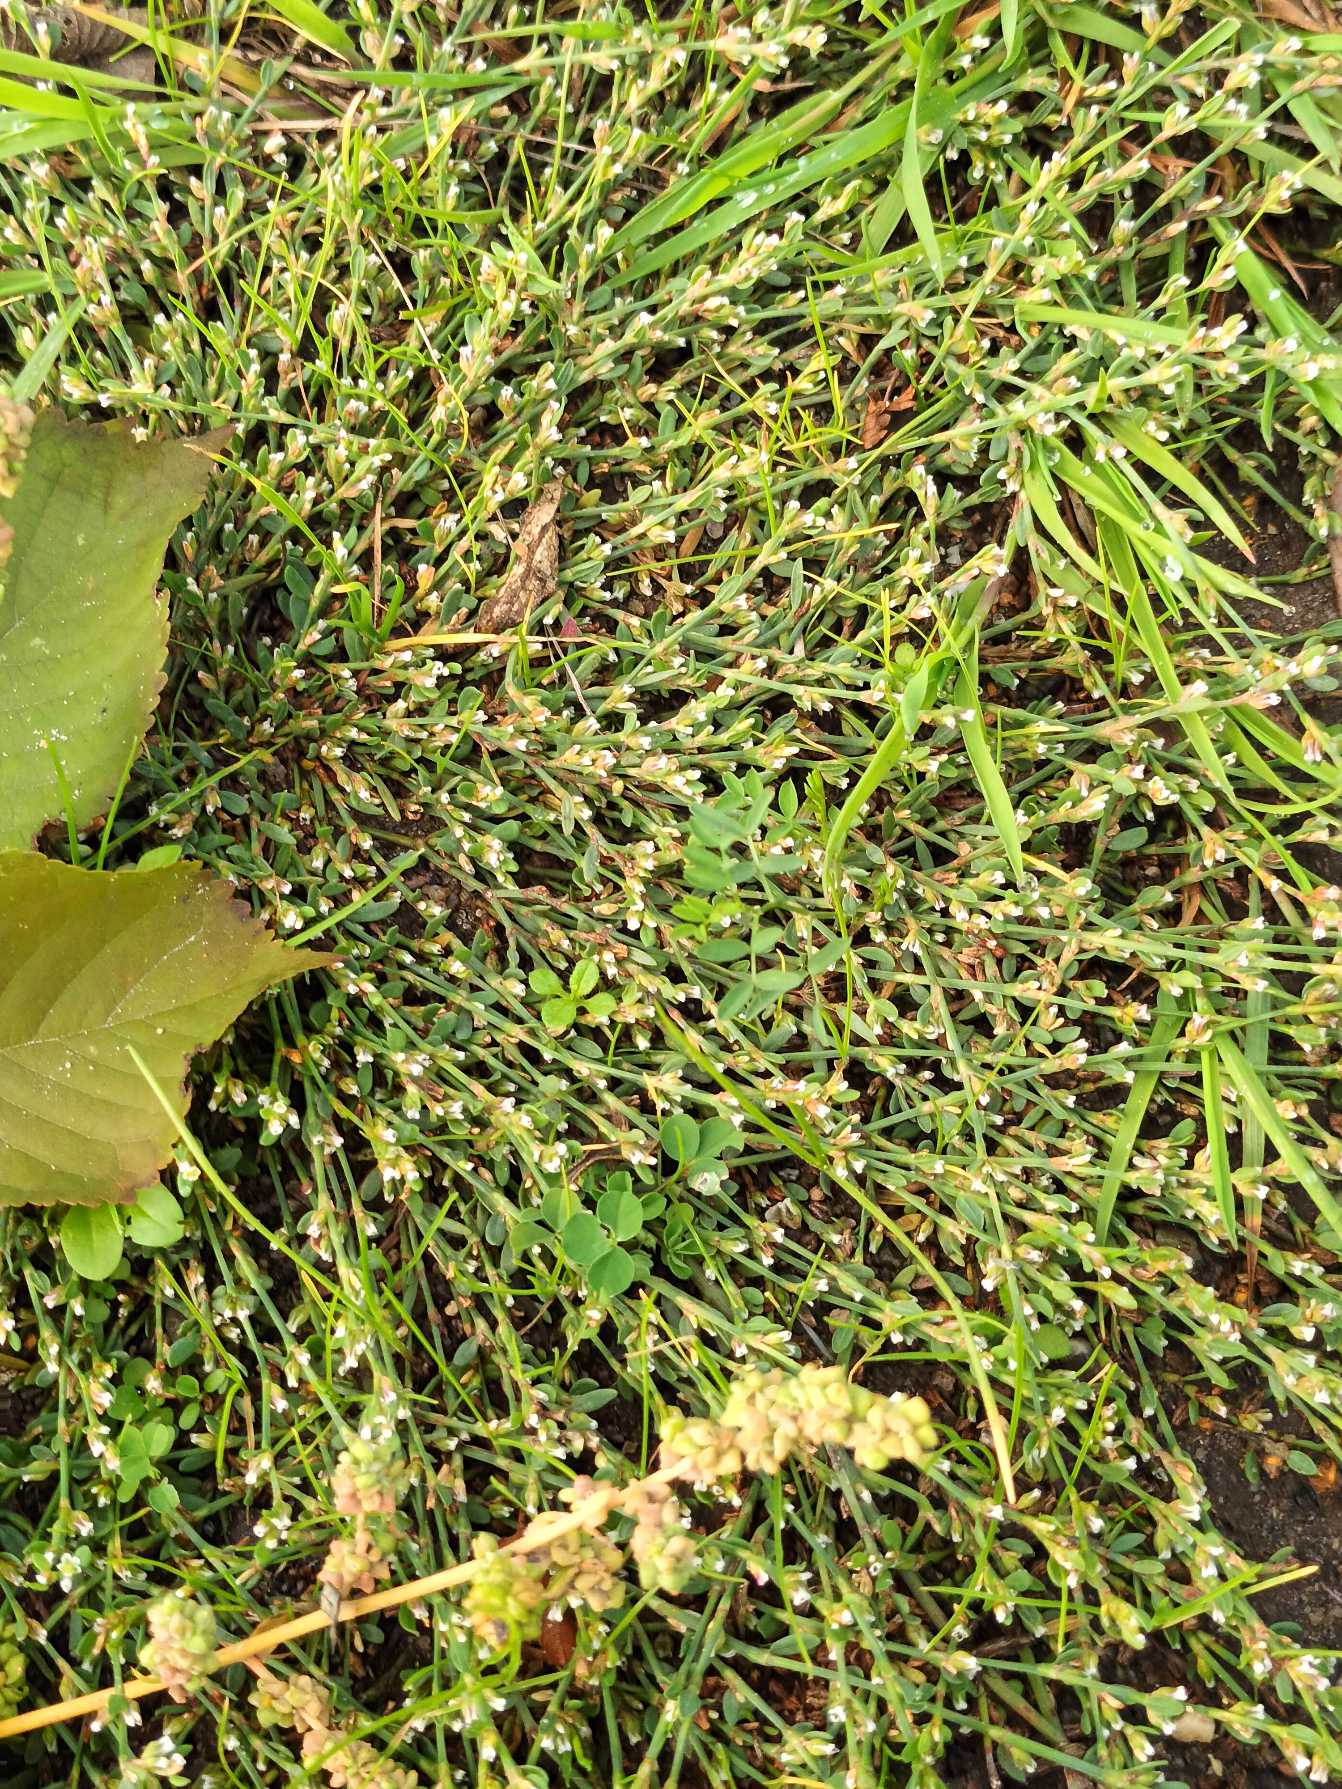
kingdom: Plantae
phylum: Tracheophyta
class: Magnoliopsida
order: Caryophyllales
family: Polygonaceae
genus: Polygonum
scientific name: Polygonum arenastrum
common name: Liggende vej-pileurt
